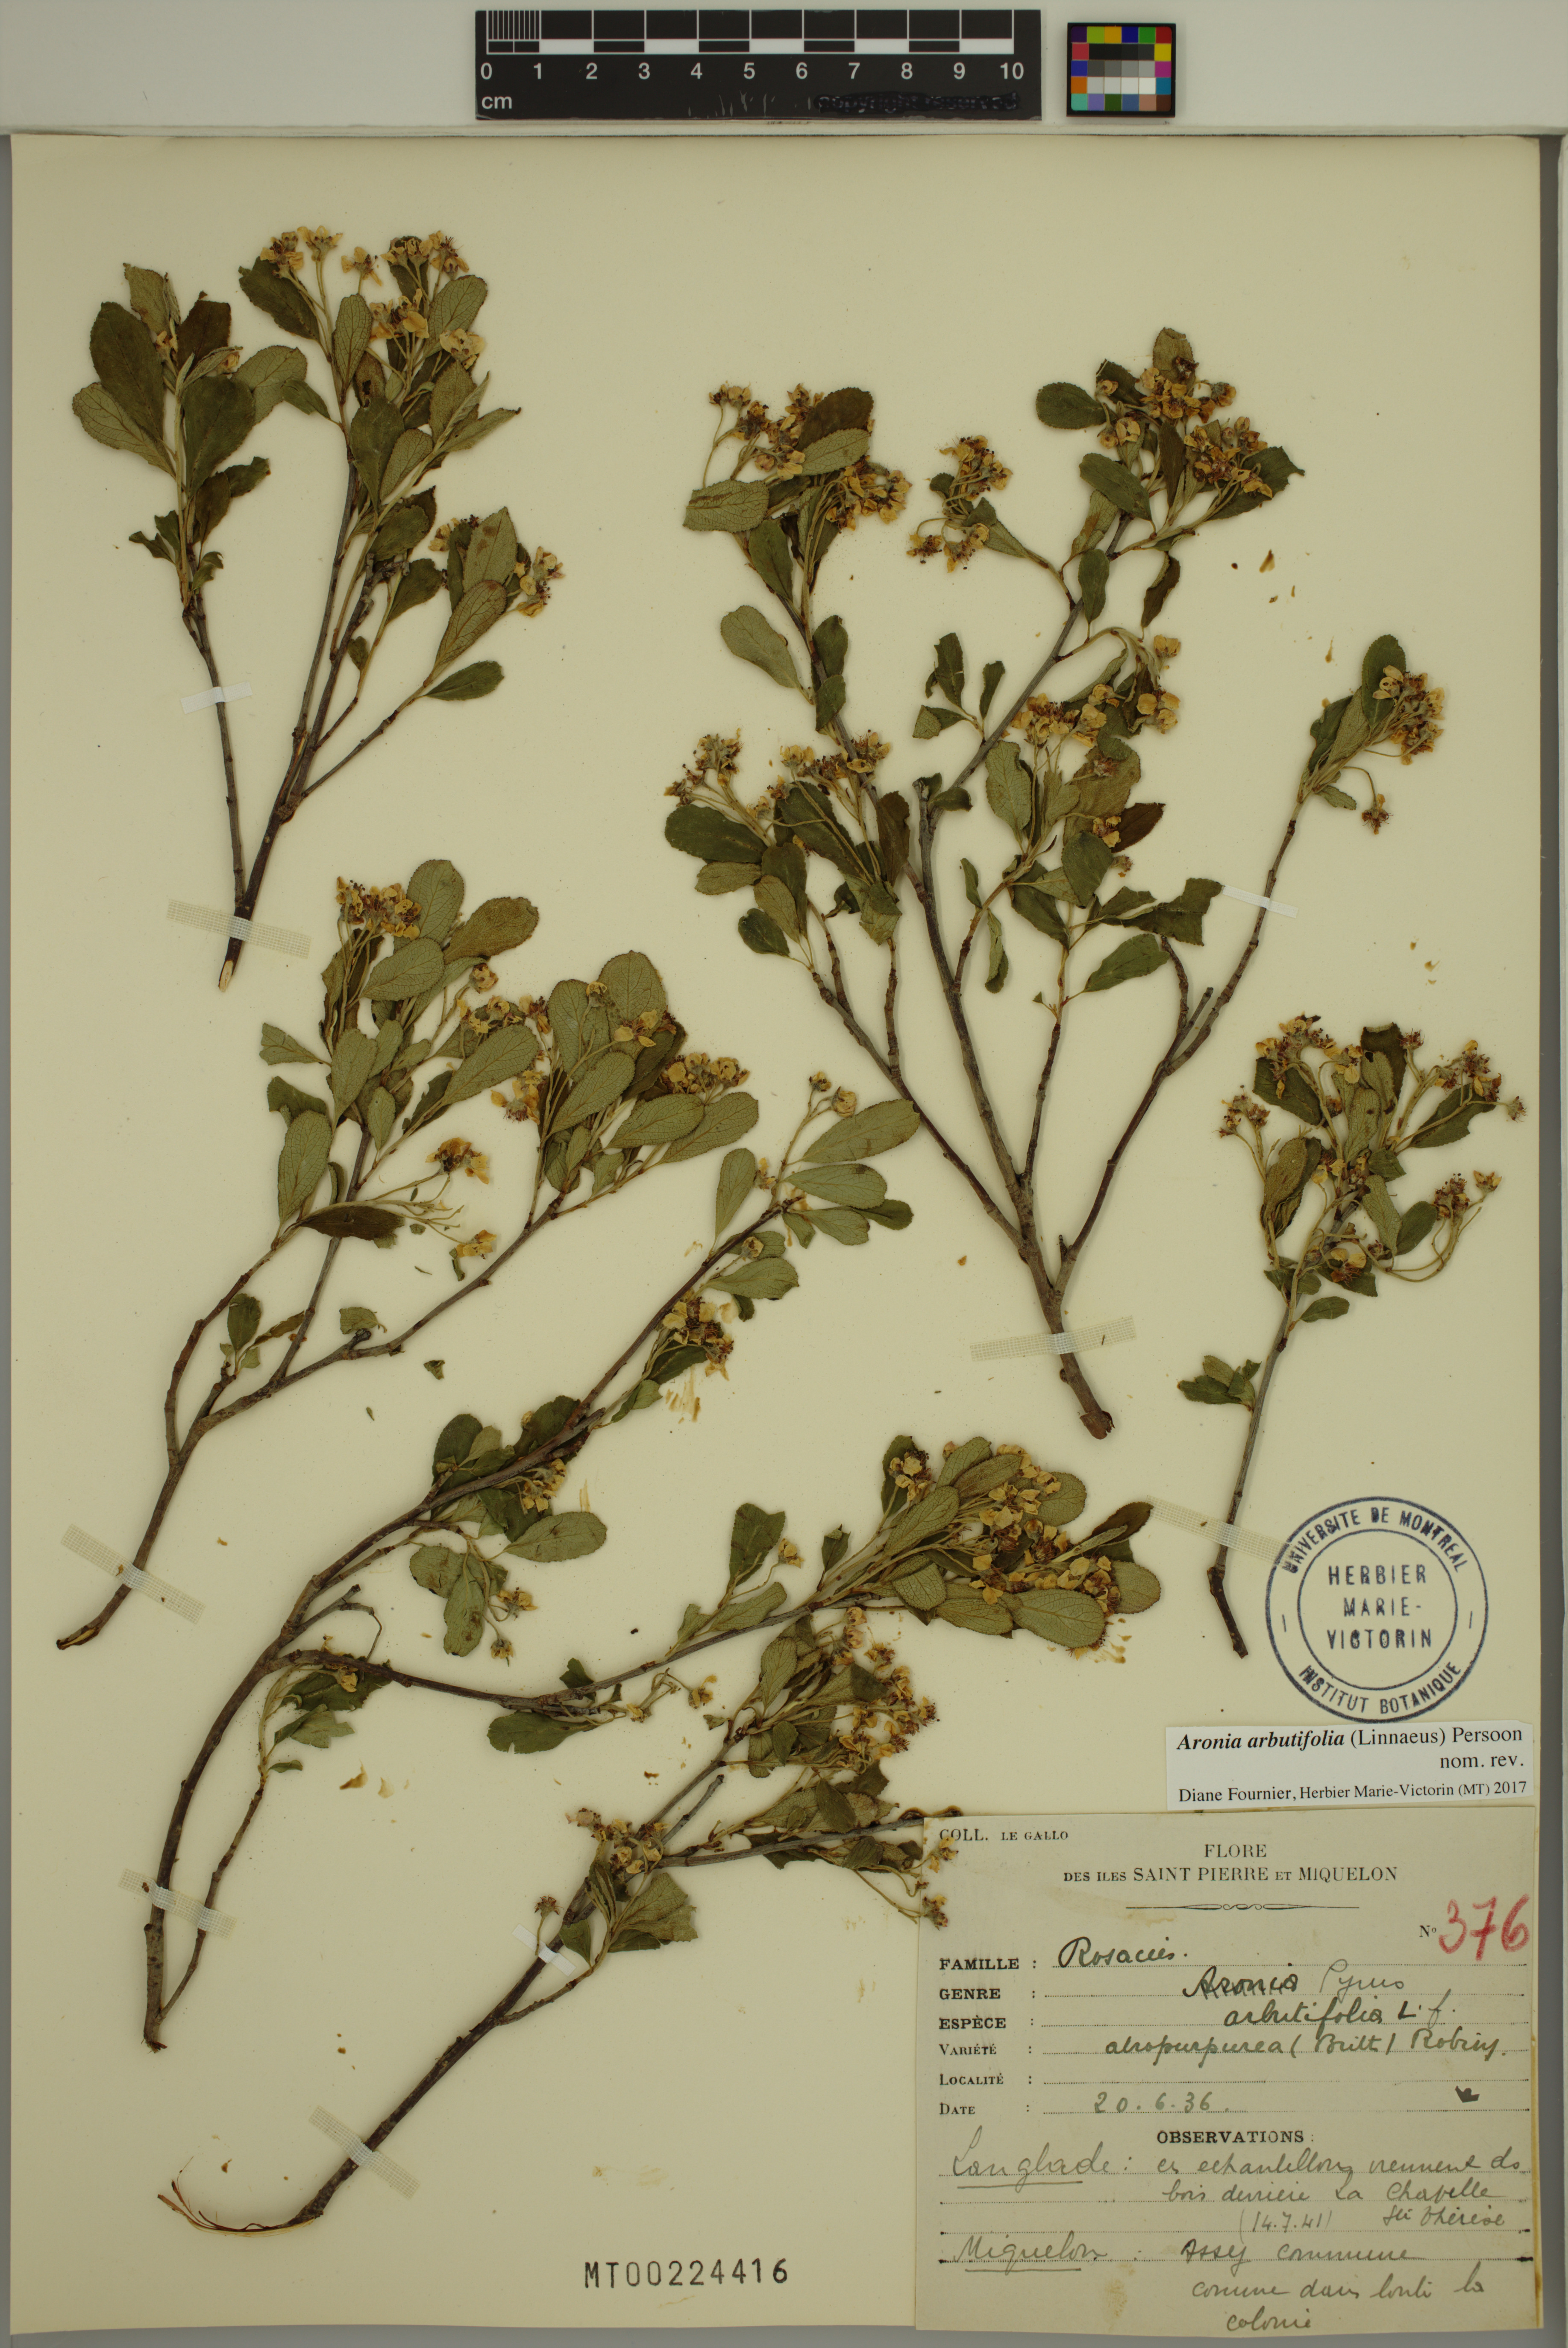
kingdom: Plantae
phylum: Tracheophyta
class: Magnoliopsida
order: Rosales
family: Rosaceae
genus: Aronia
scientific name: Aronia arbutifolia
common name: Red chokeberry
